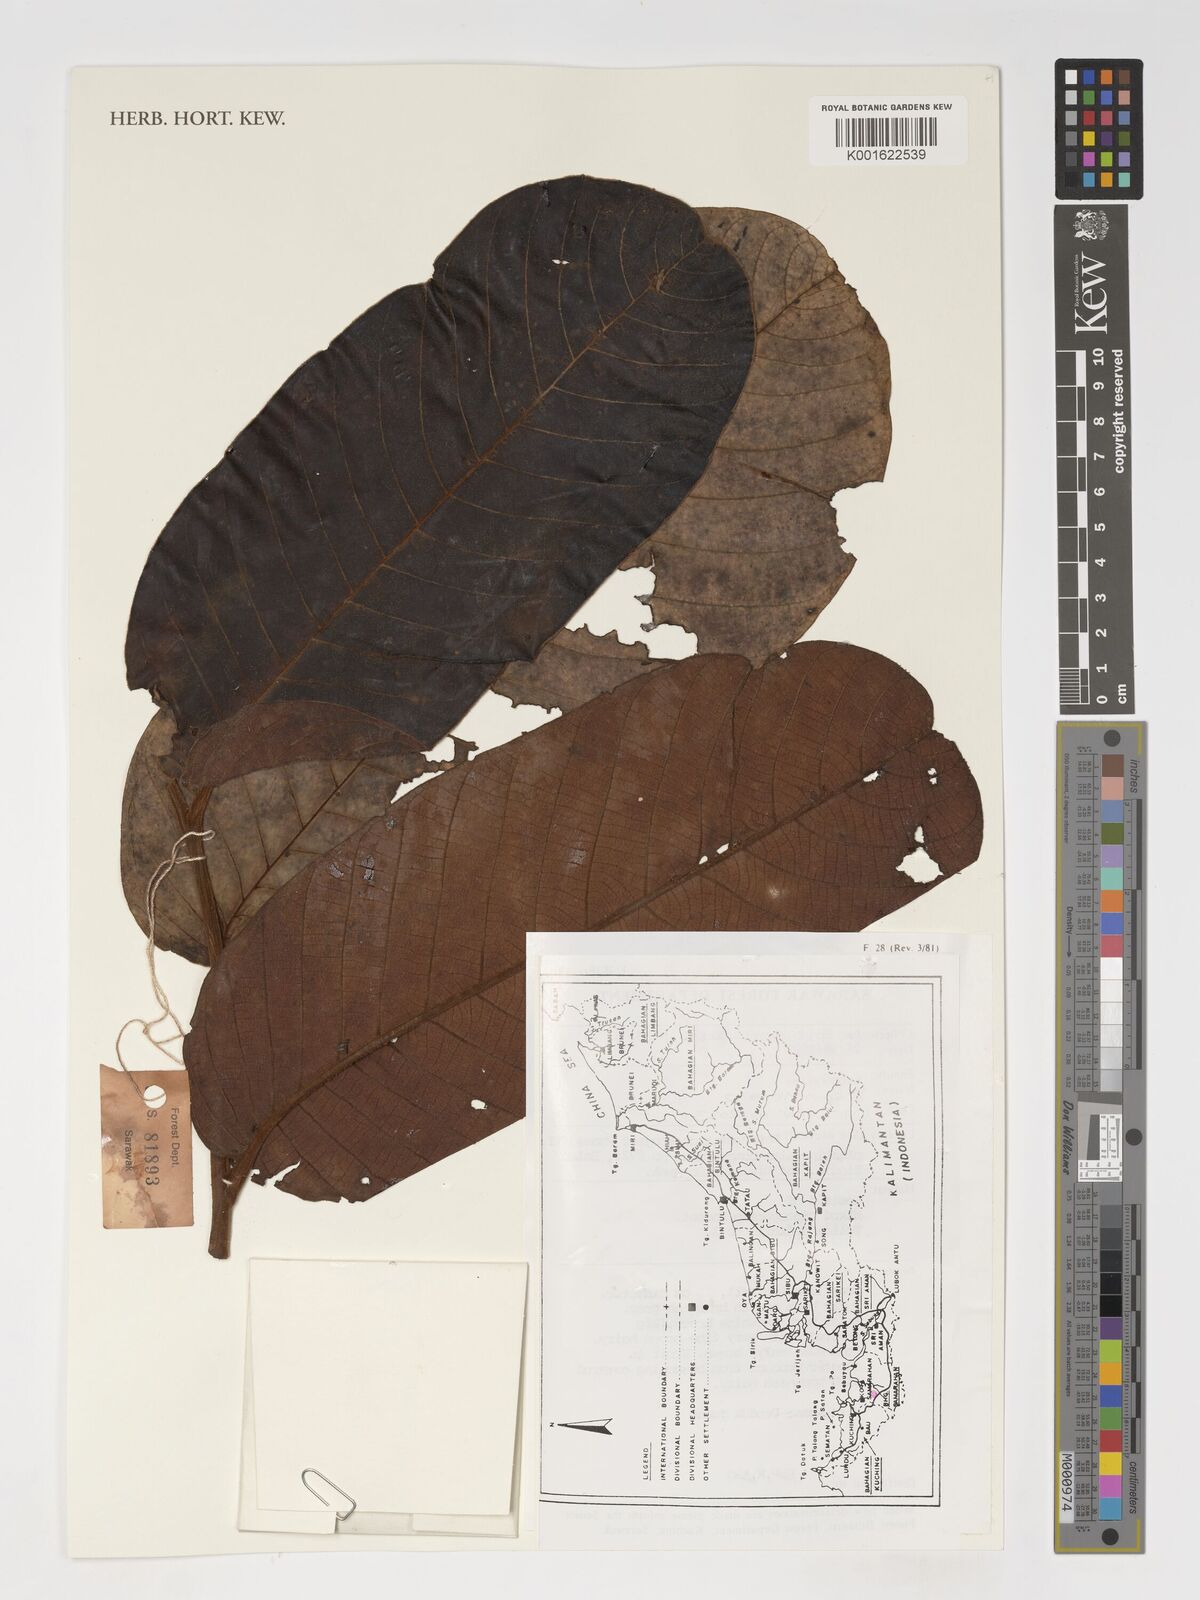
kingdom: Plantae
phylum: Tracheophyta
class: Magnoliopsida
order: Magnoliales
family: Annonaceae
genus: Drepananthus
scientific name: Drepananthus
